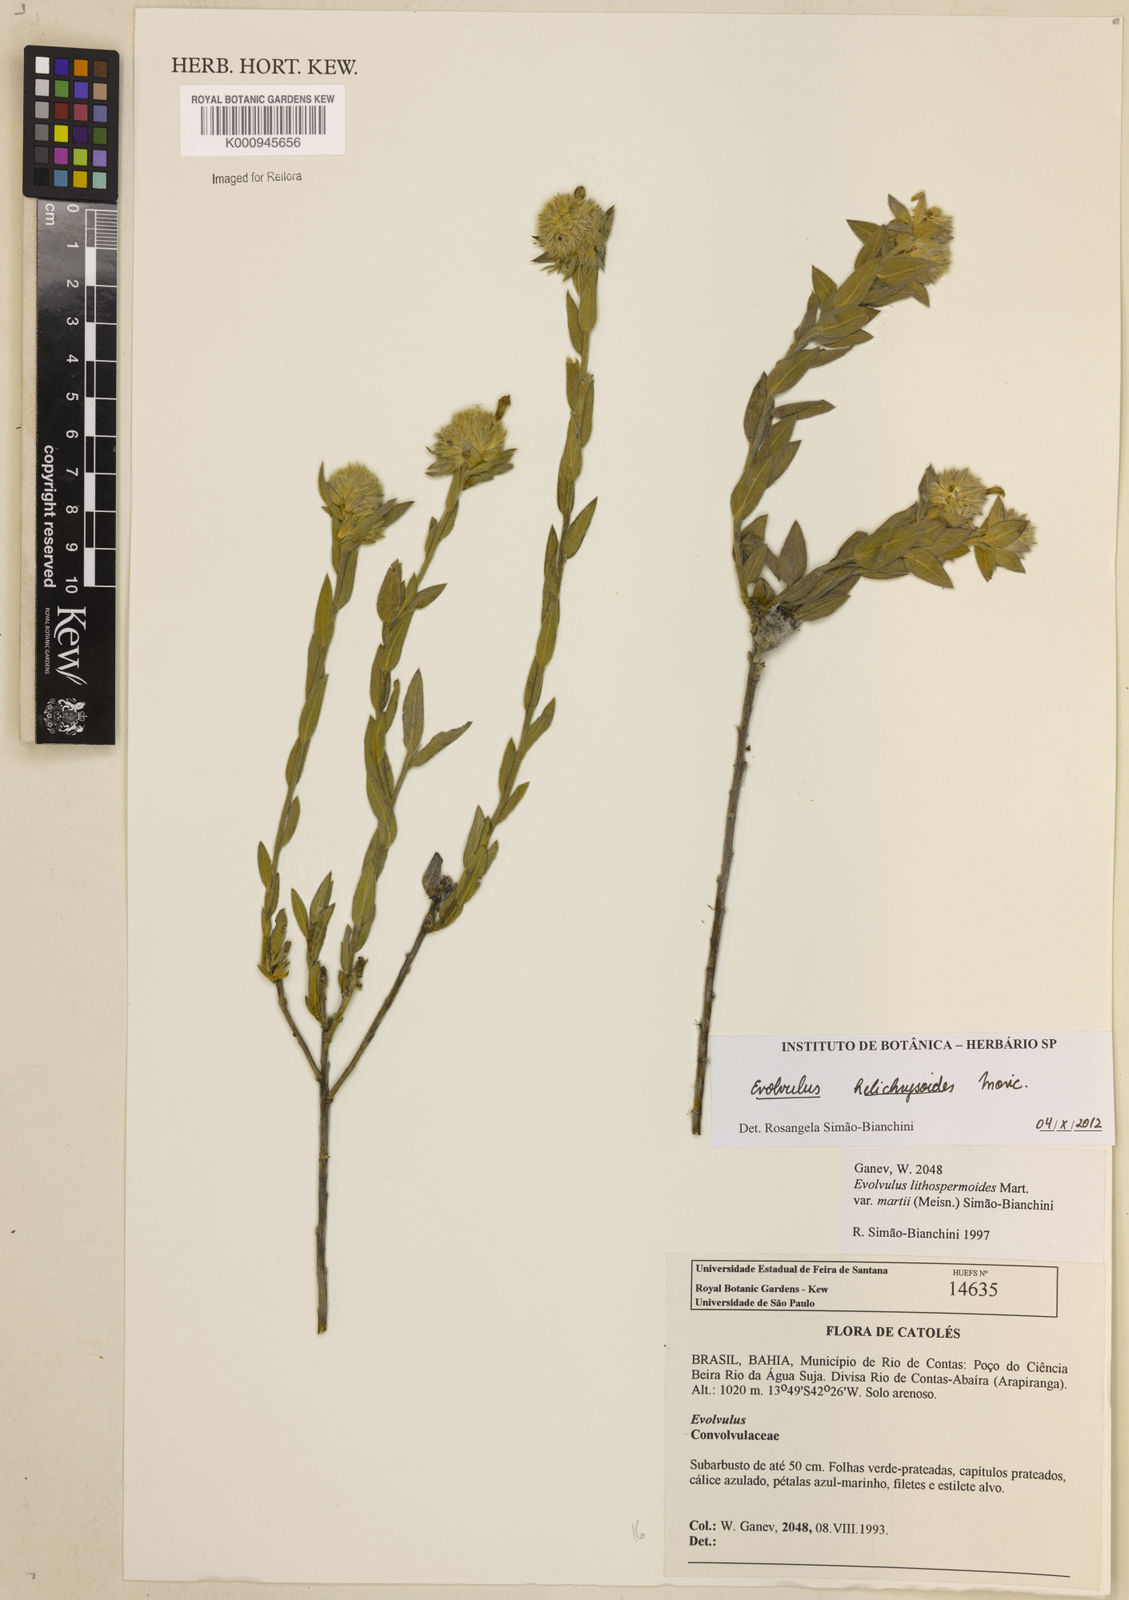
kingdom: Plantae
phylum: Tracheophyta
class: Magnoliopsida
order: Solanales
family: Convolvulaceae
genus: Evolvulus
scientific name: Evolvulus helichrysoides
